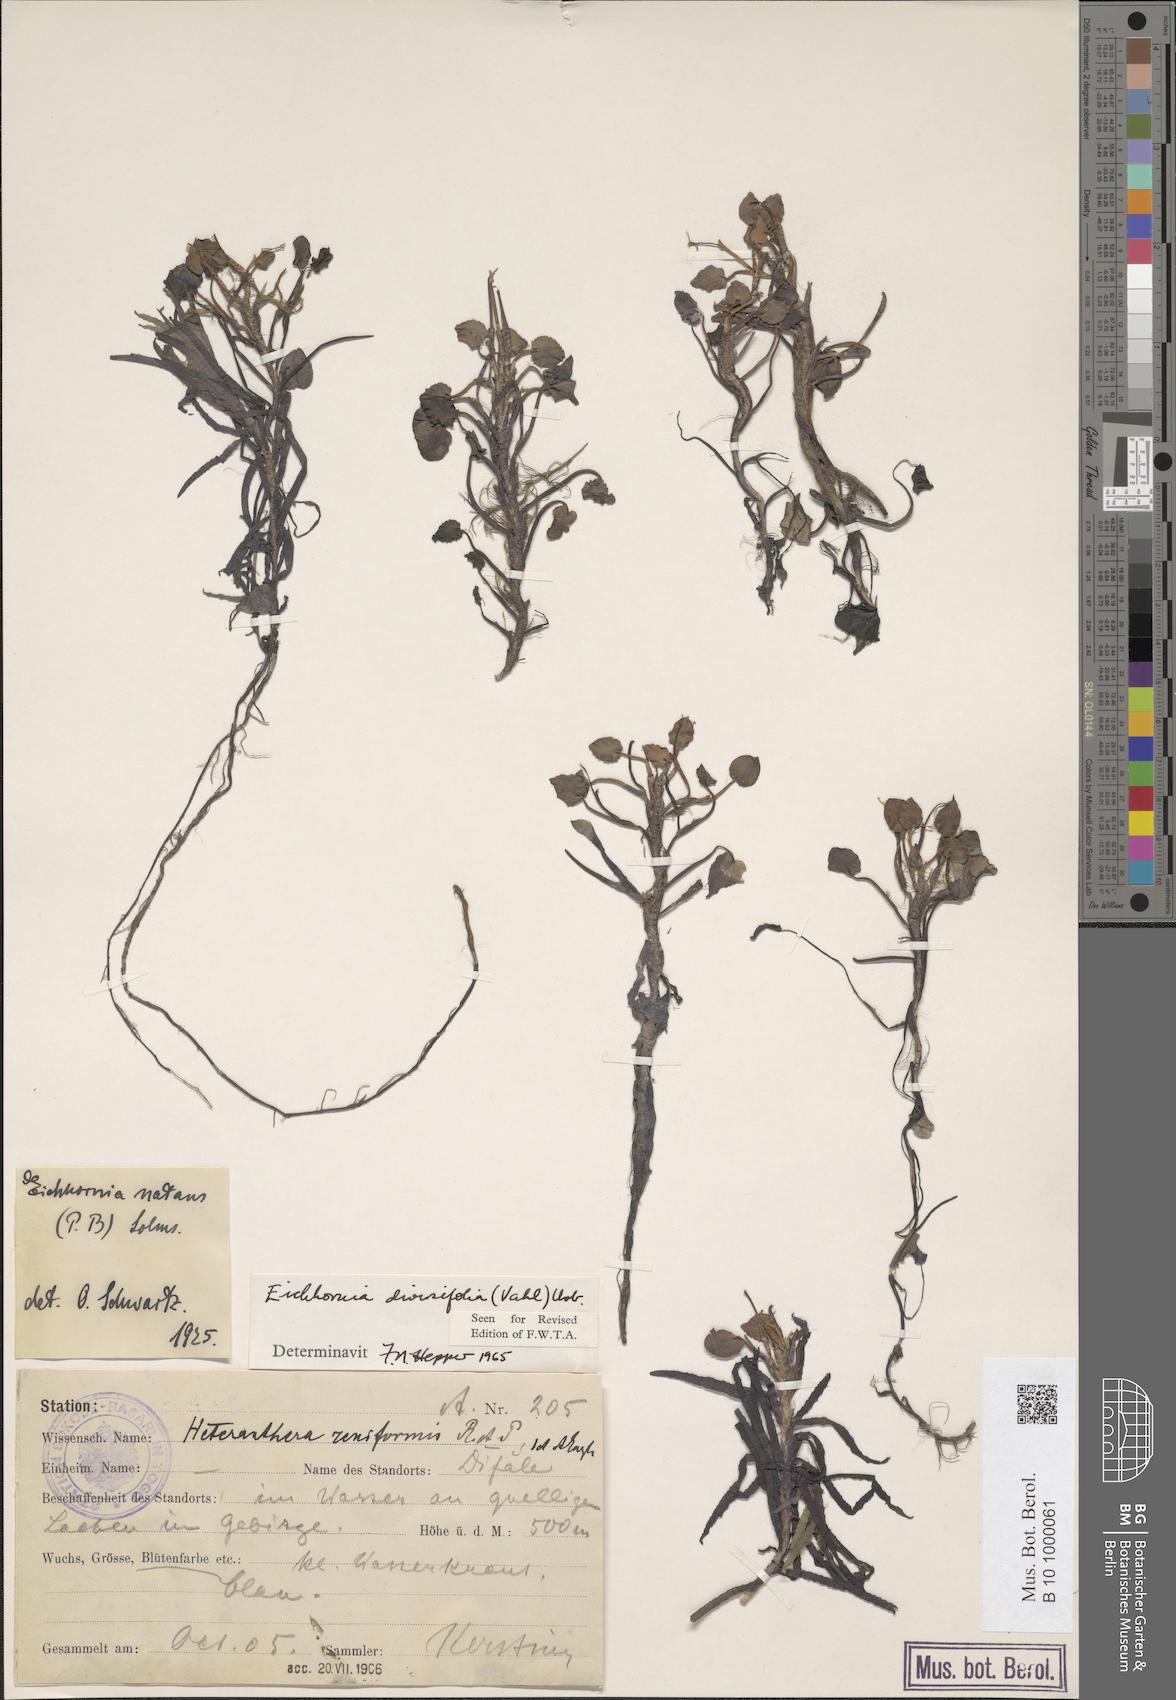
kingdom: Plantae
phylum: Tracheophyta
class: Liliopsida
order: Commelinales
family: Pontederiaceae
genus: Pontederia
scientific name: Pontederia natans
